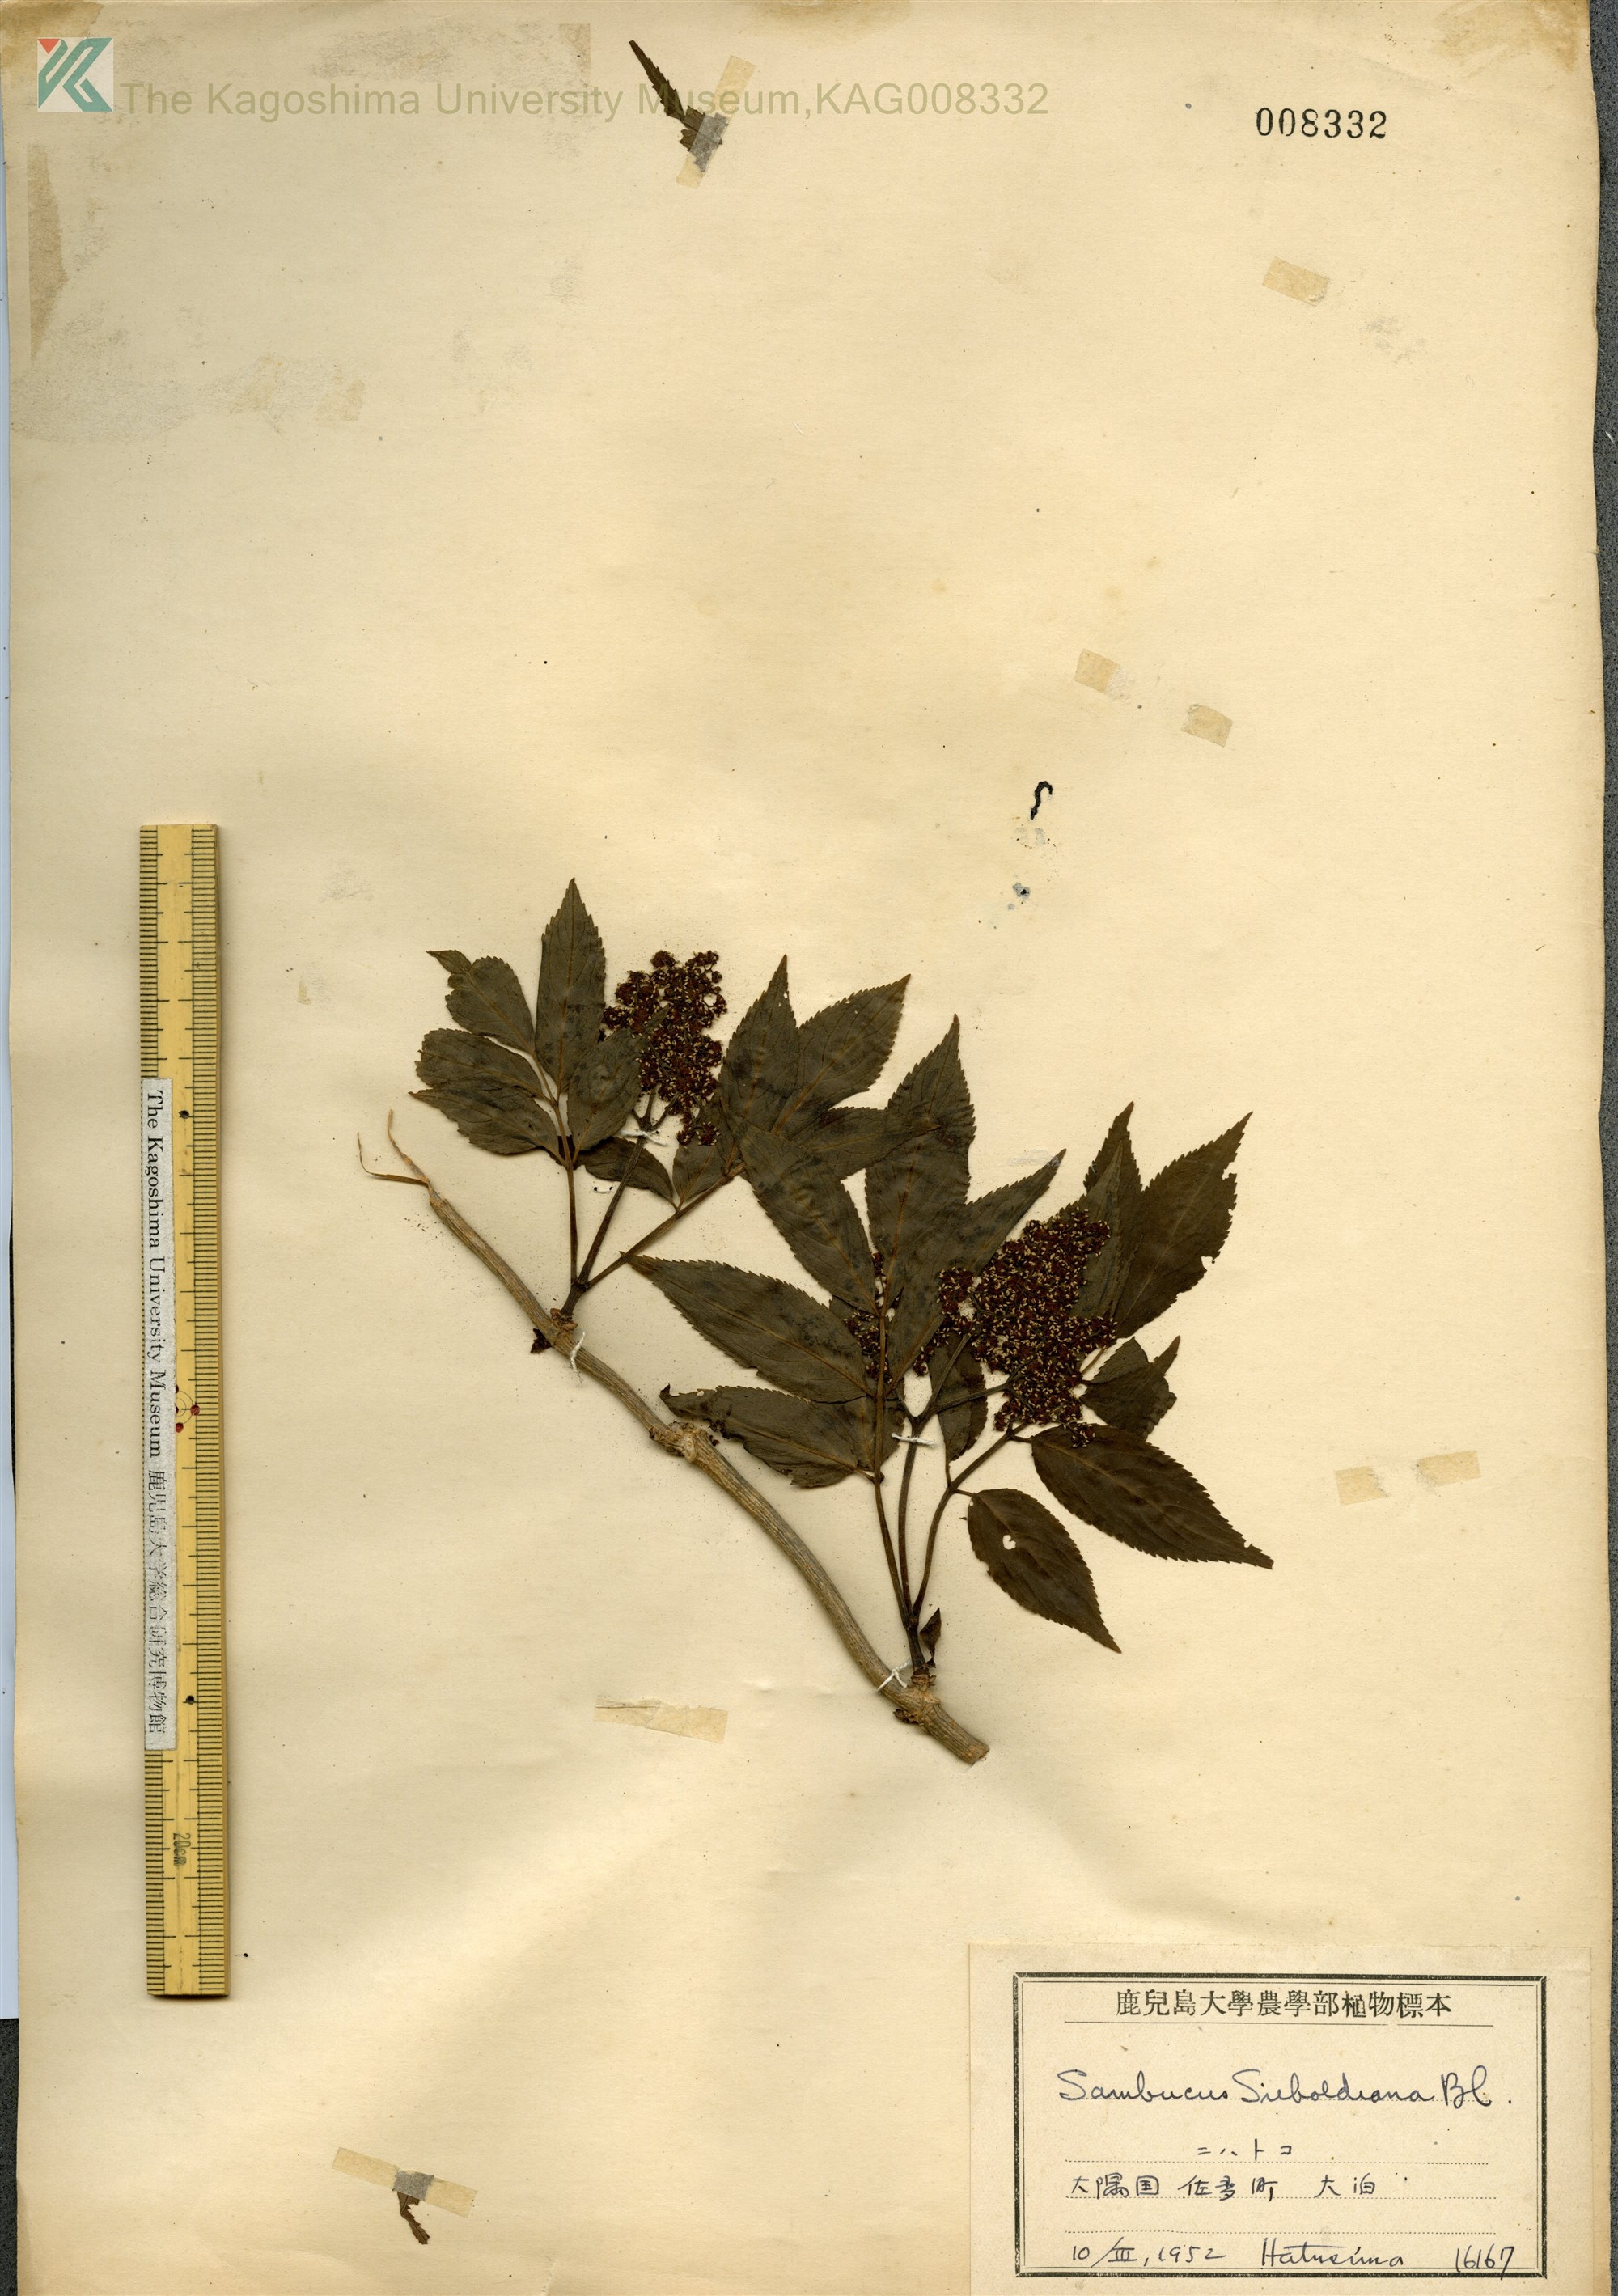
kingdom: Plantae
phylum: Tracheophyta
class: Magnoliopsida
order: Dipsacales
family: Viburnaceae
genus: Sambucus
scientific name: Sambucus sieboldiana
